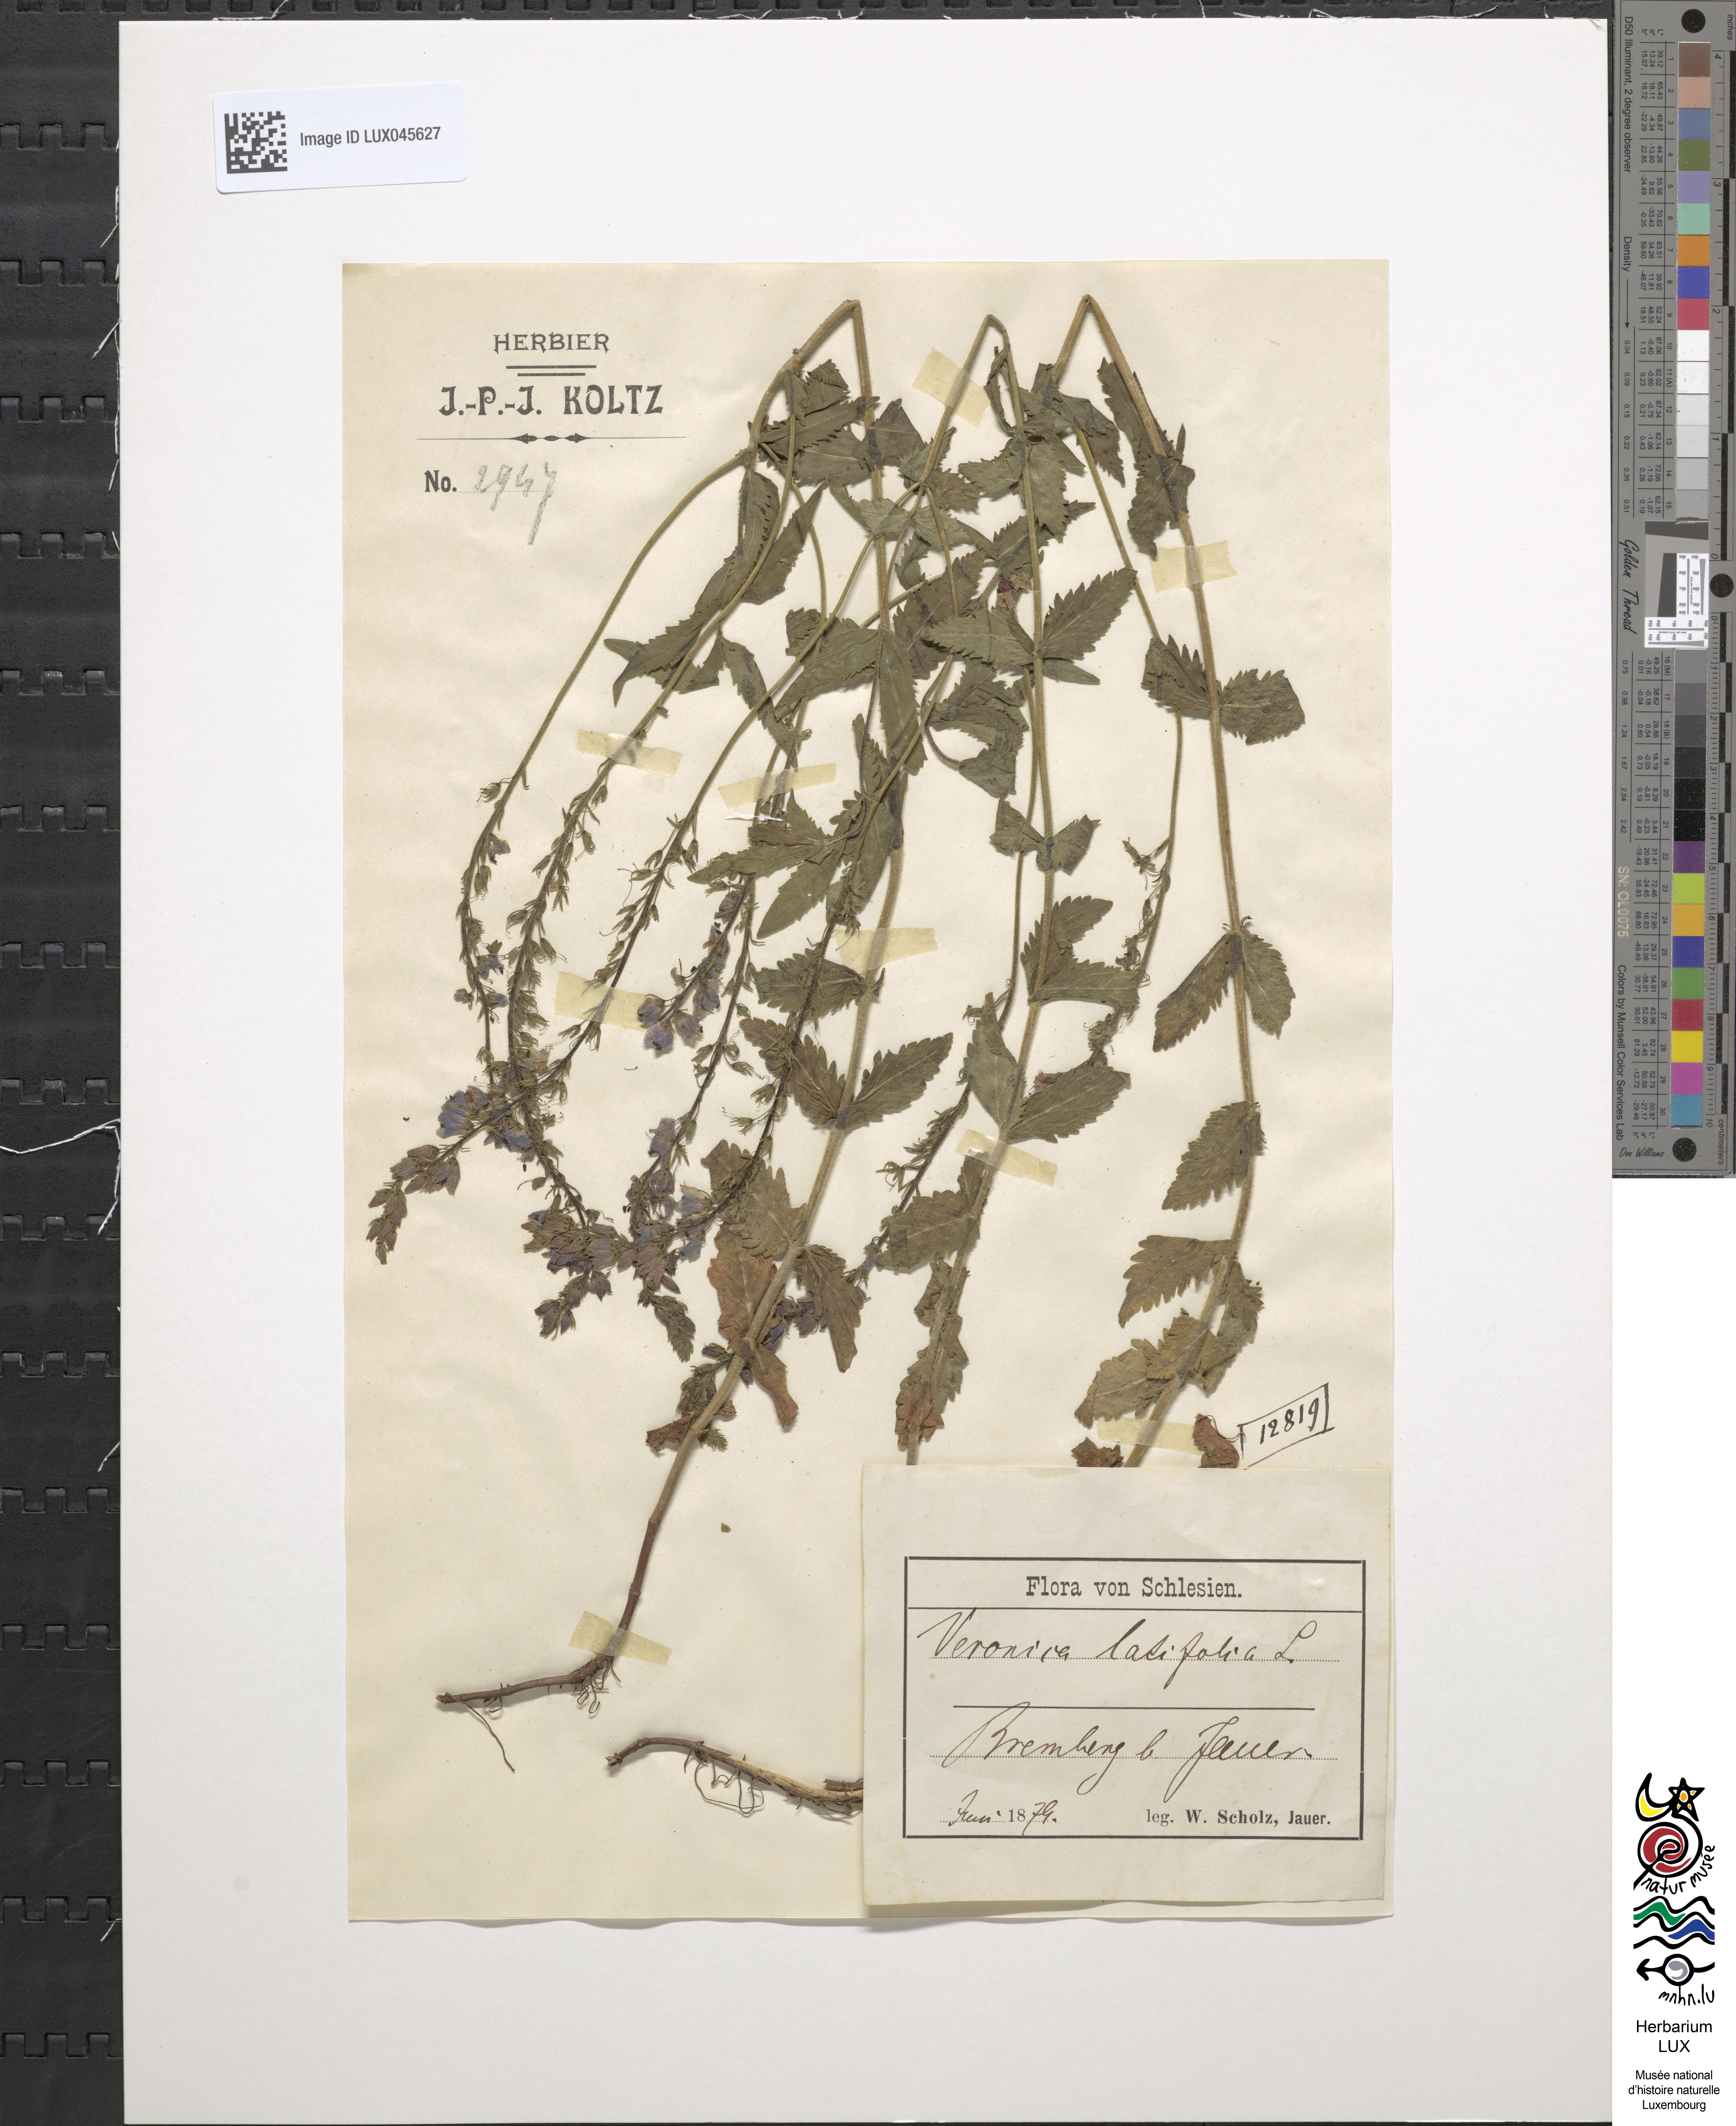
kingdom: Plantae
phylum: Tracheophyta
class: Magnoliopsida
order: Lamiales
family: Plantaginaceae
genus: Veronica
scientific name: Veronica urticifolia
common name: Nettle-leaf speedwell
